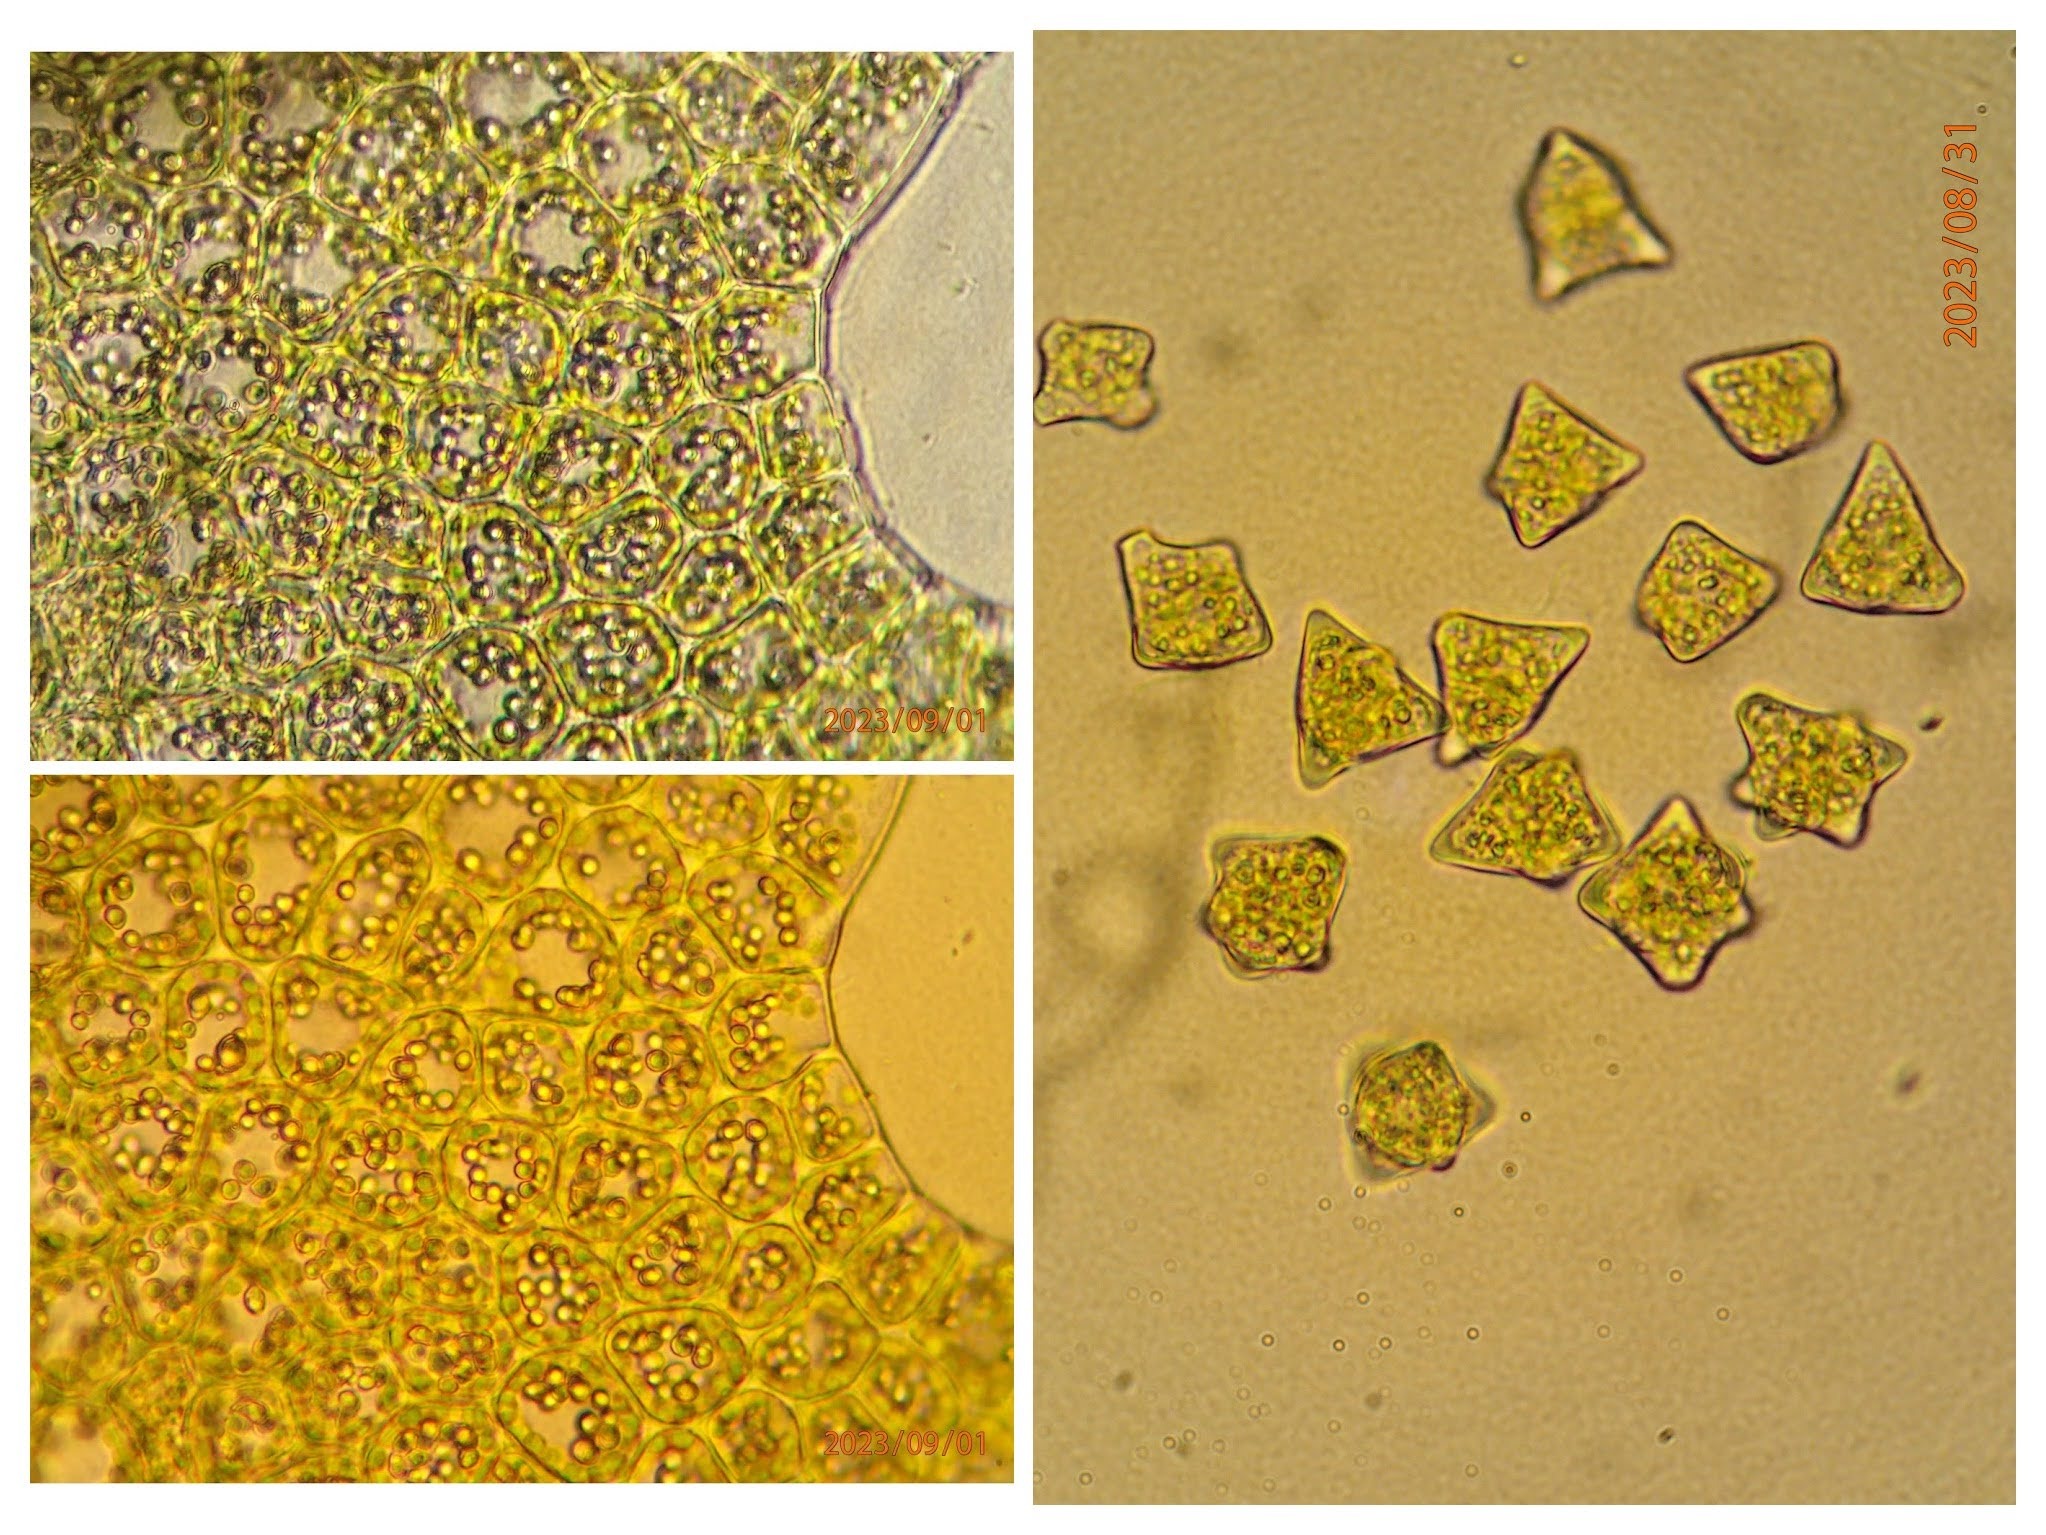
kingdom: Plantae
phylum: Marchantiophyta
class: Jungermanniopsida
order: Jungermanniales
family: Lophoziaceae
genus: Lophozia
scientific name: Lophozia silvicola
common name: Smalbladet foldbæger
